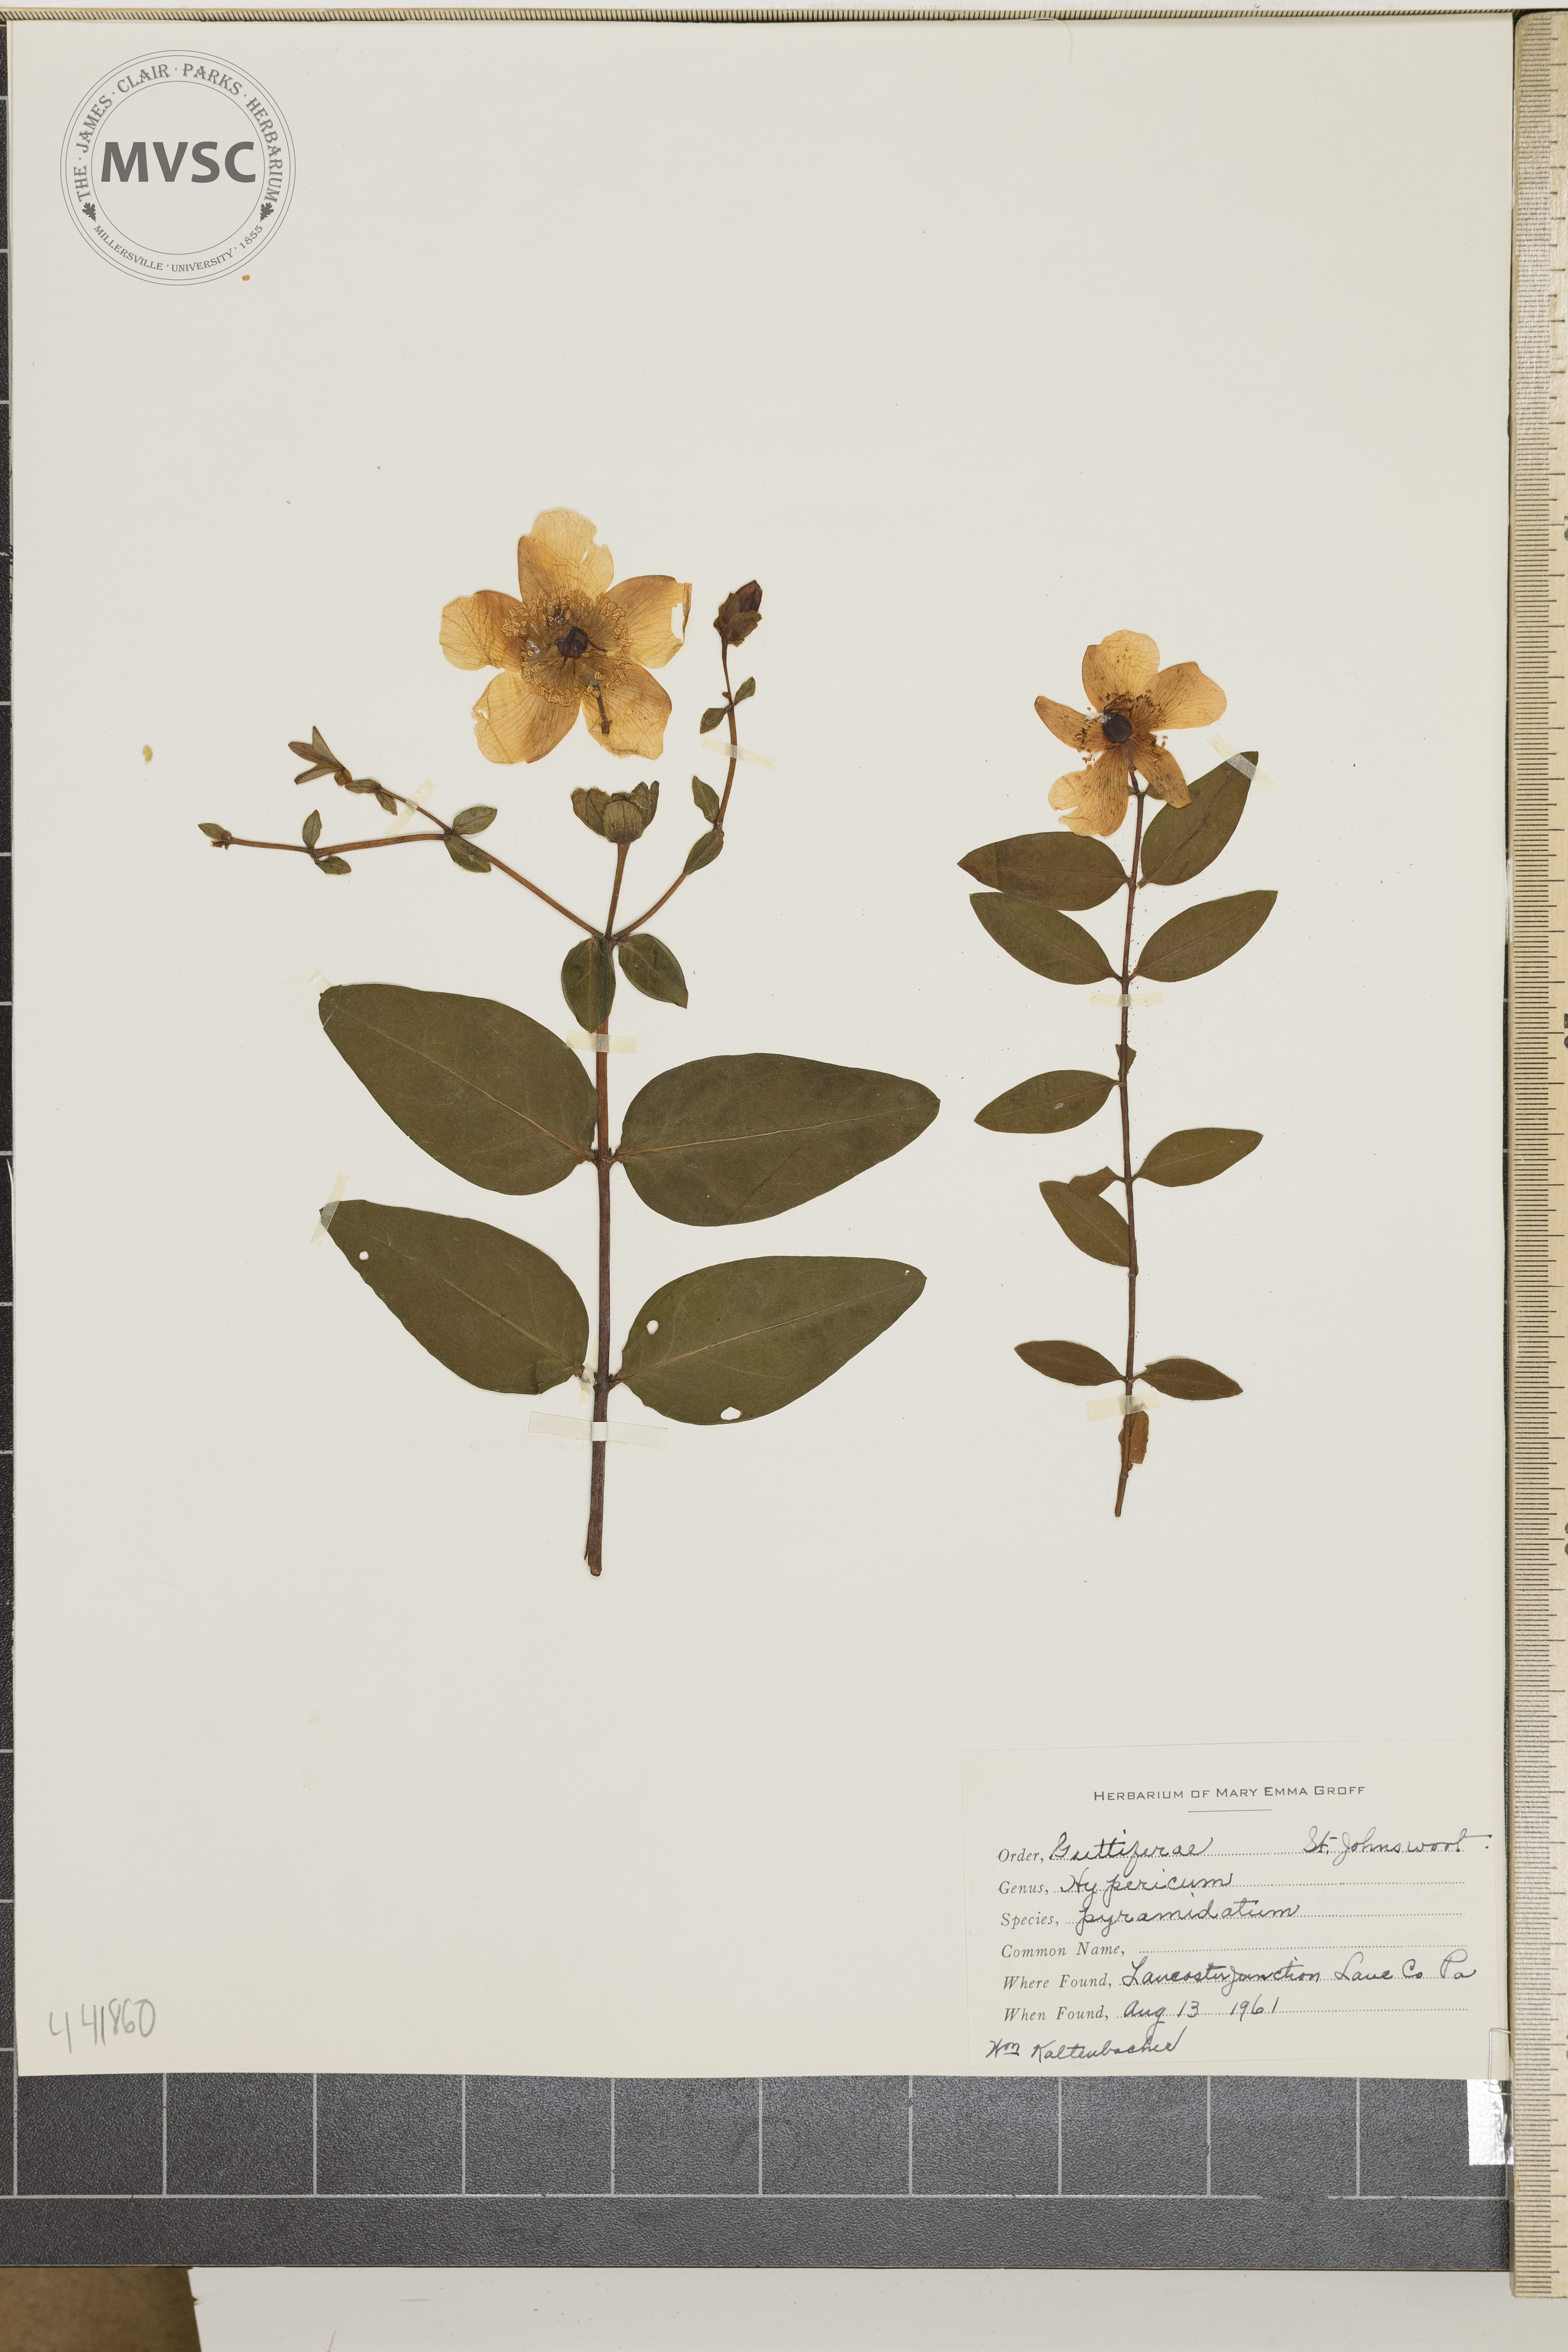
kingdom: Plantae
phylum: Tracheophyta
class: Magnoliopsida
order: Malpighiales
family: Hypericaceae
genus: Hypericum
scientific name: Hypericum ascyron
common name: Giant st. john's-wort
